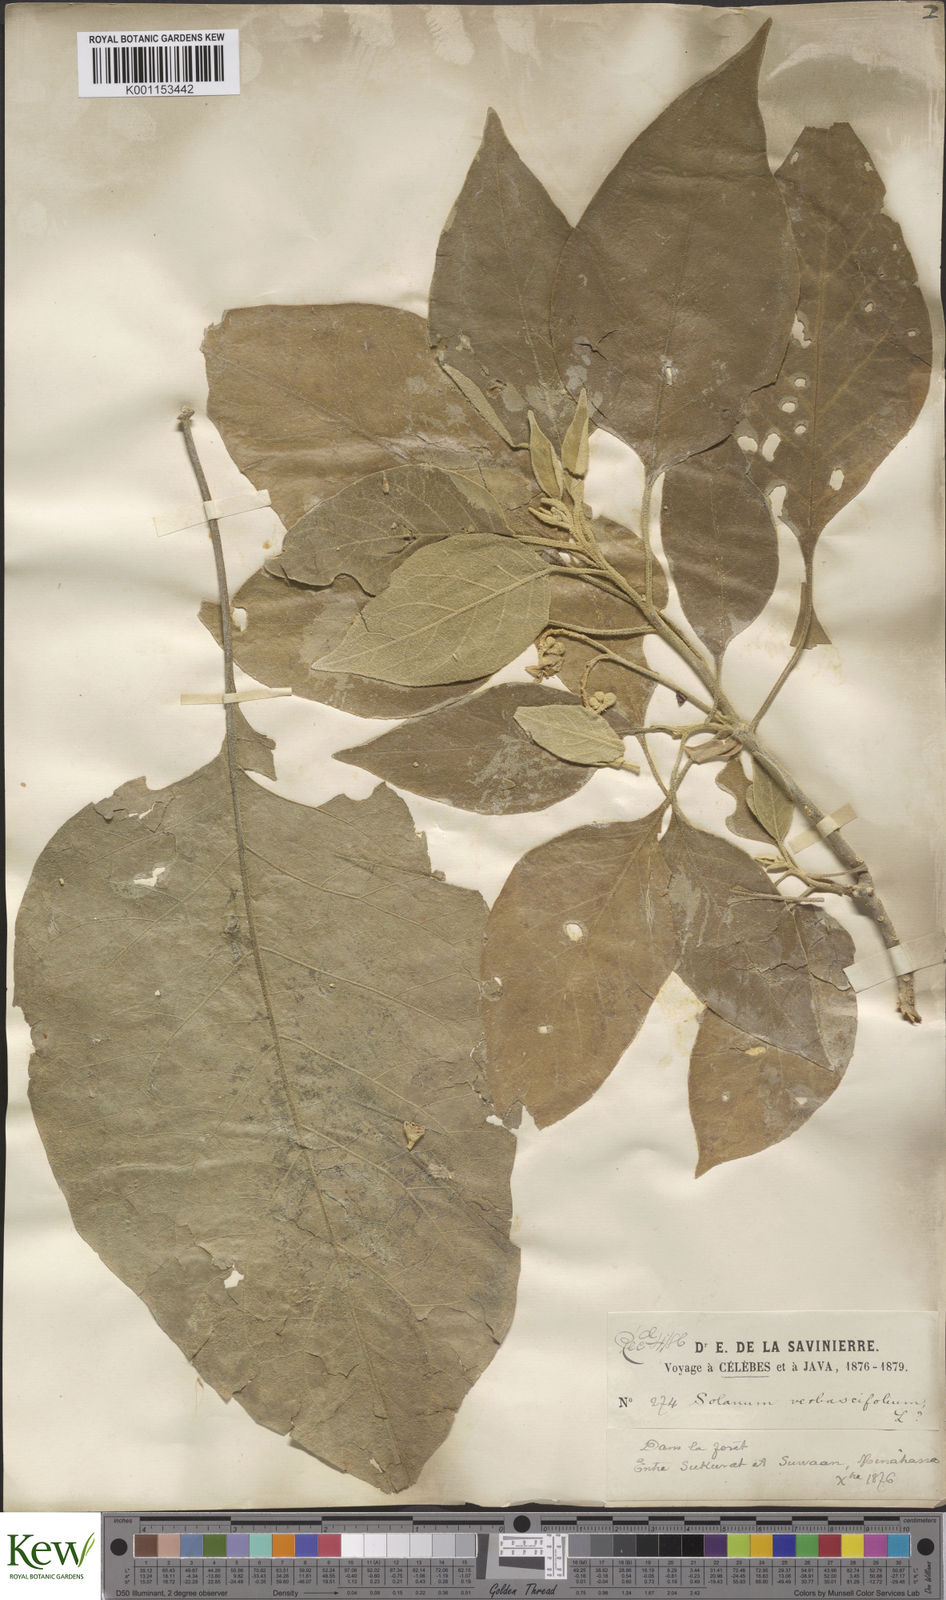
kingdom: Plantae
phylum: Tracheophyta
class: Magnoliopsida
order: Solanales
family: Solanaceae
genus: Solanum
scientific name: Solanum erianthum
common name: Tobacco-tree
